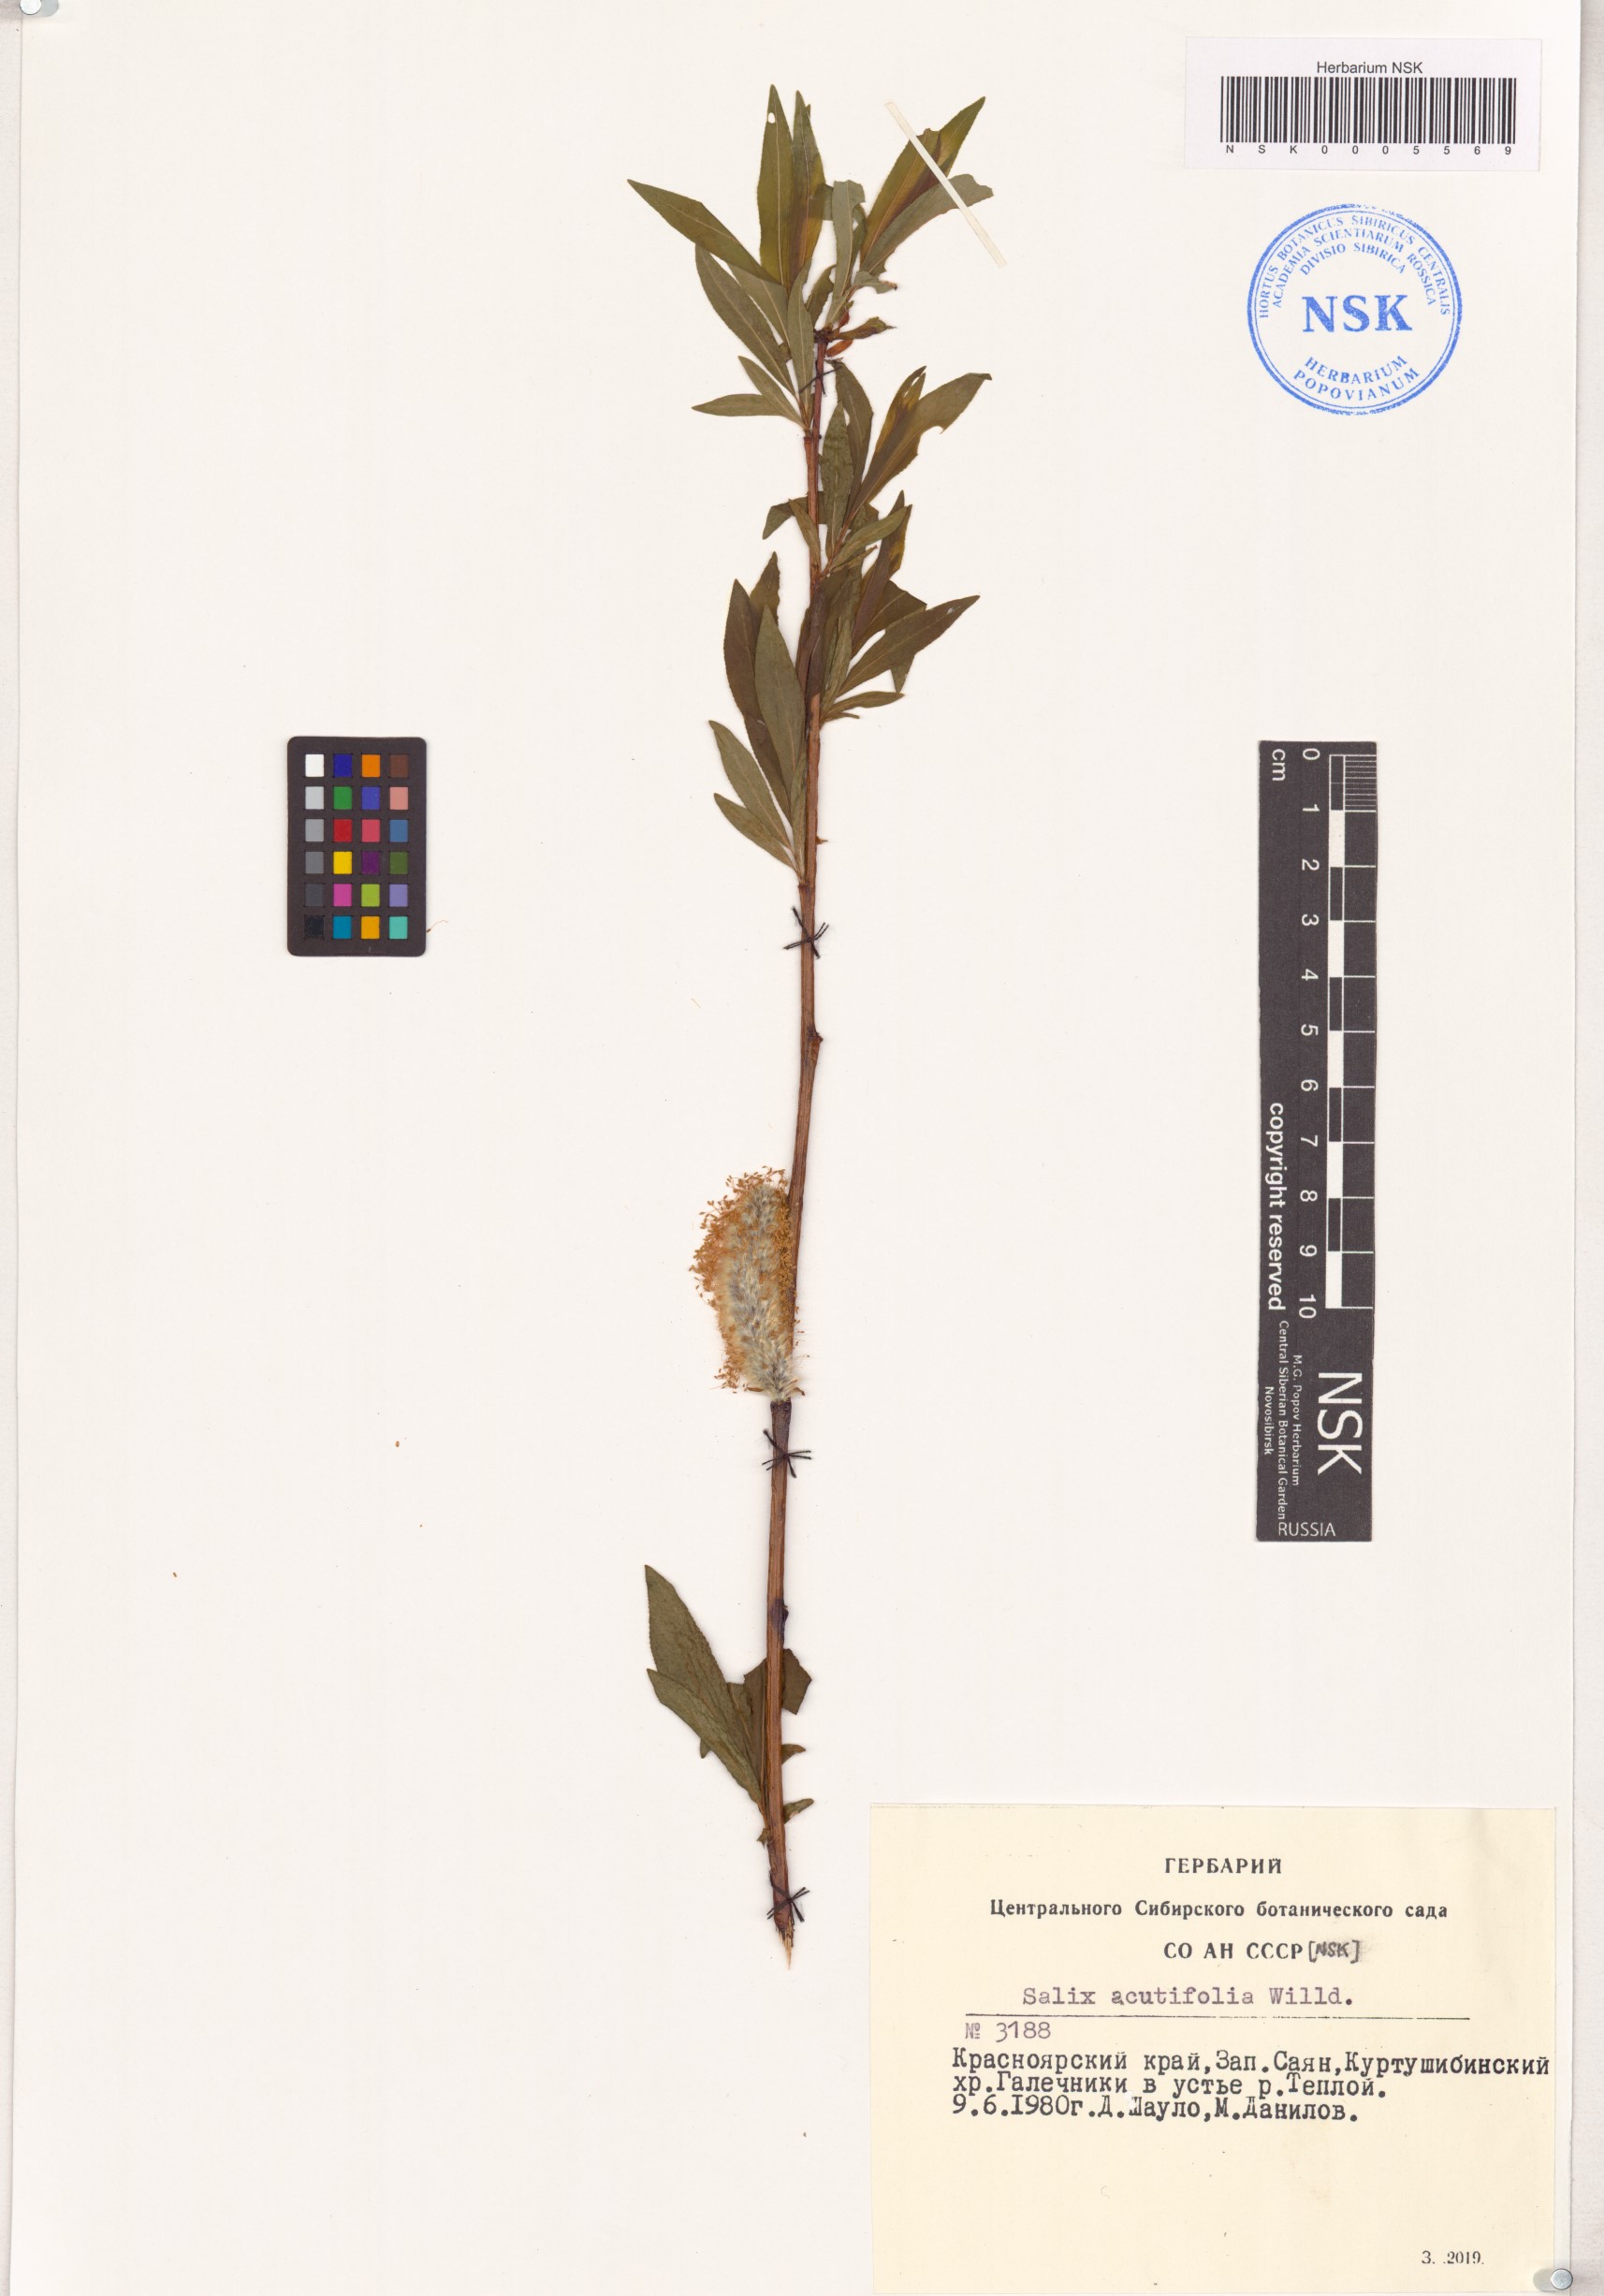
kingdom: Plantae
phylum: Tracheophyta
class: Magnoliopsida
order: Malpighiales
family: Salicaceae
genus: Salix
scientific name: Salix acutifolia
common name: Siberian violet-willow
